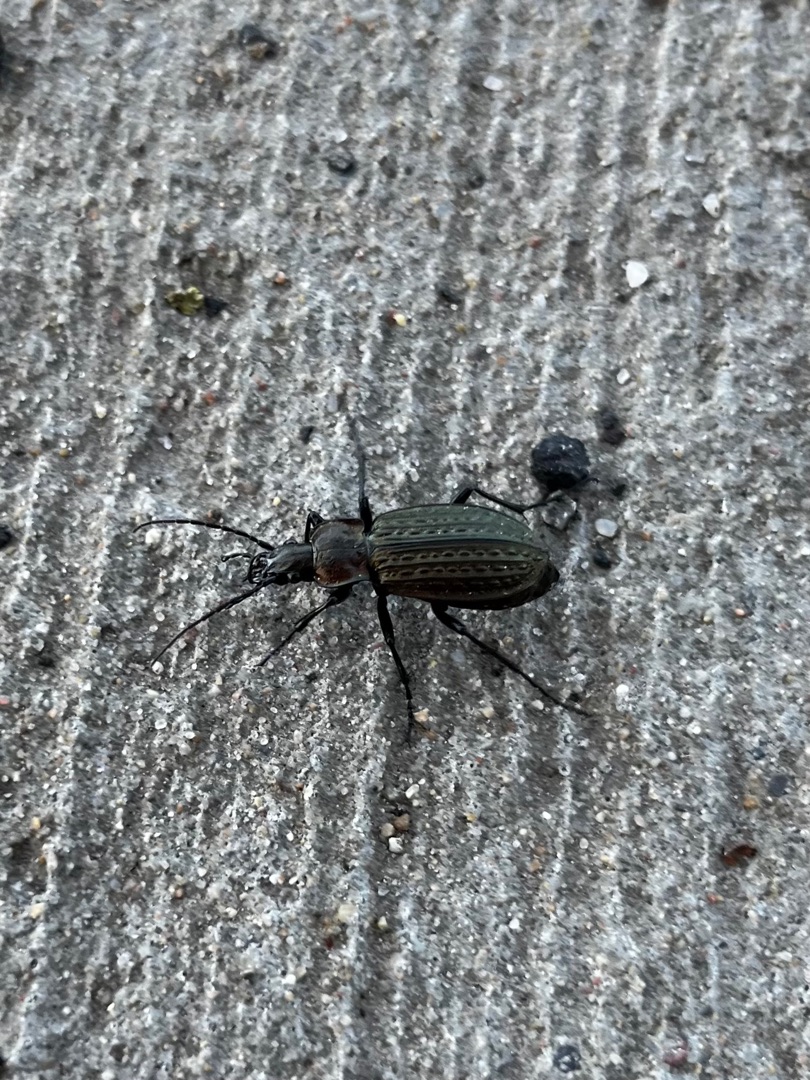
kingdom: Animalia
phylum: Arthropoda
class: Insecta
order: Coleoptera
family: Carabidae
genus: Carabus
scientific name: Carabus granulatus
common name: Kornet løber
